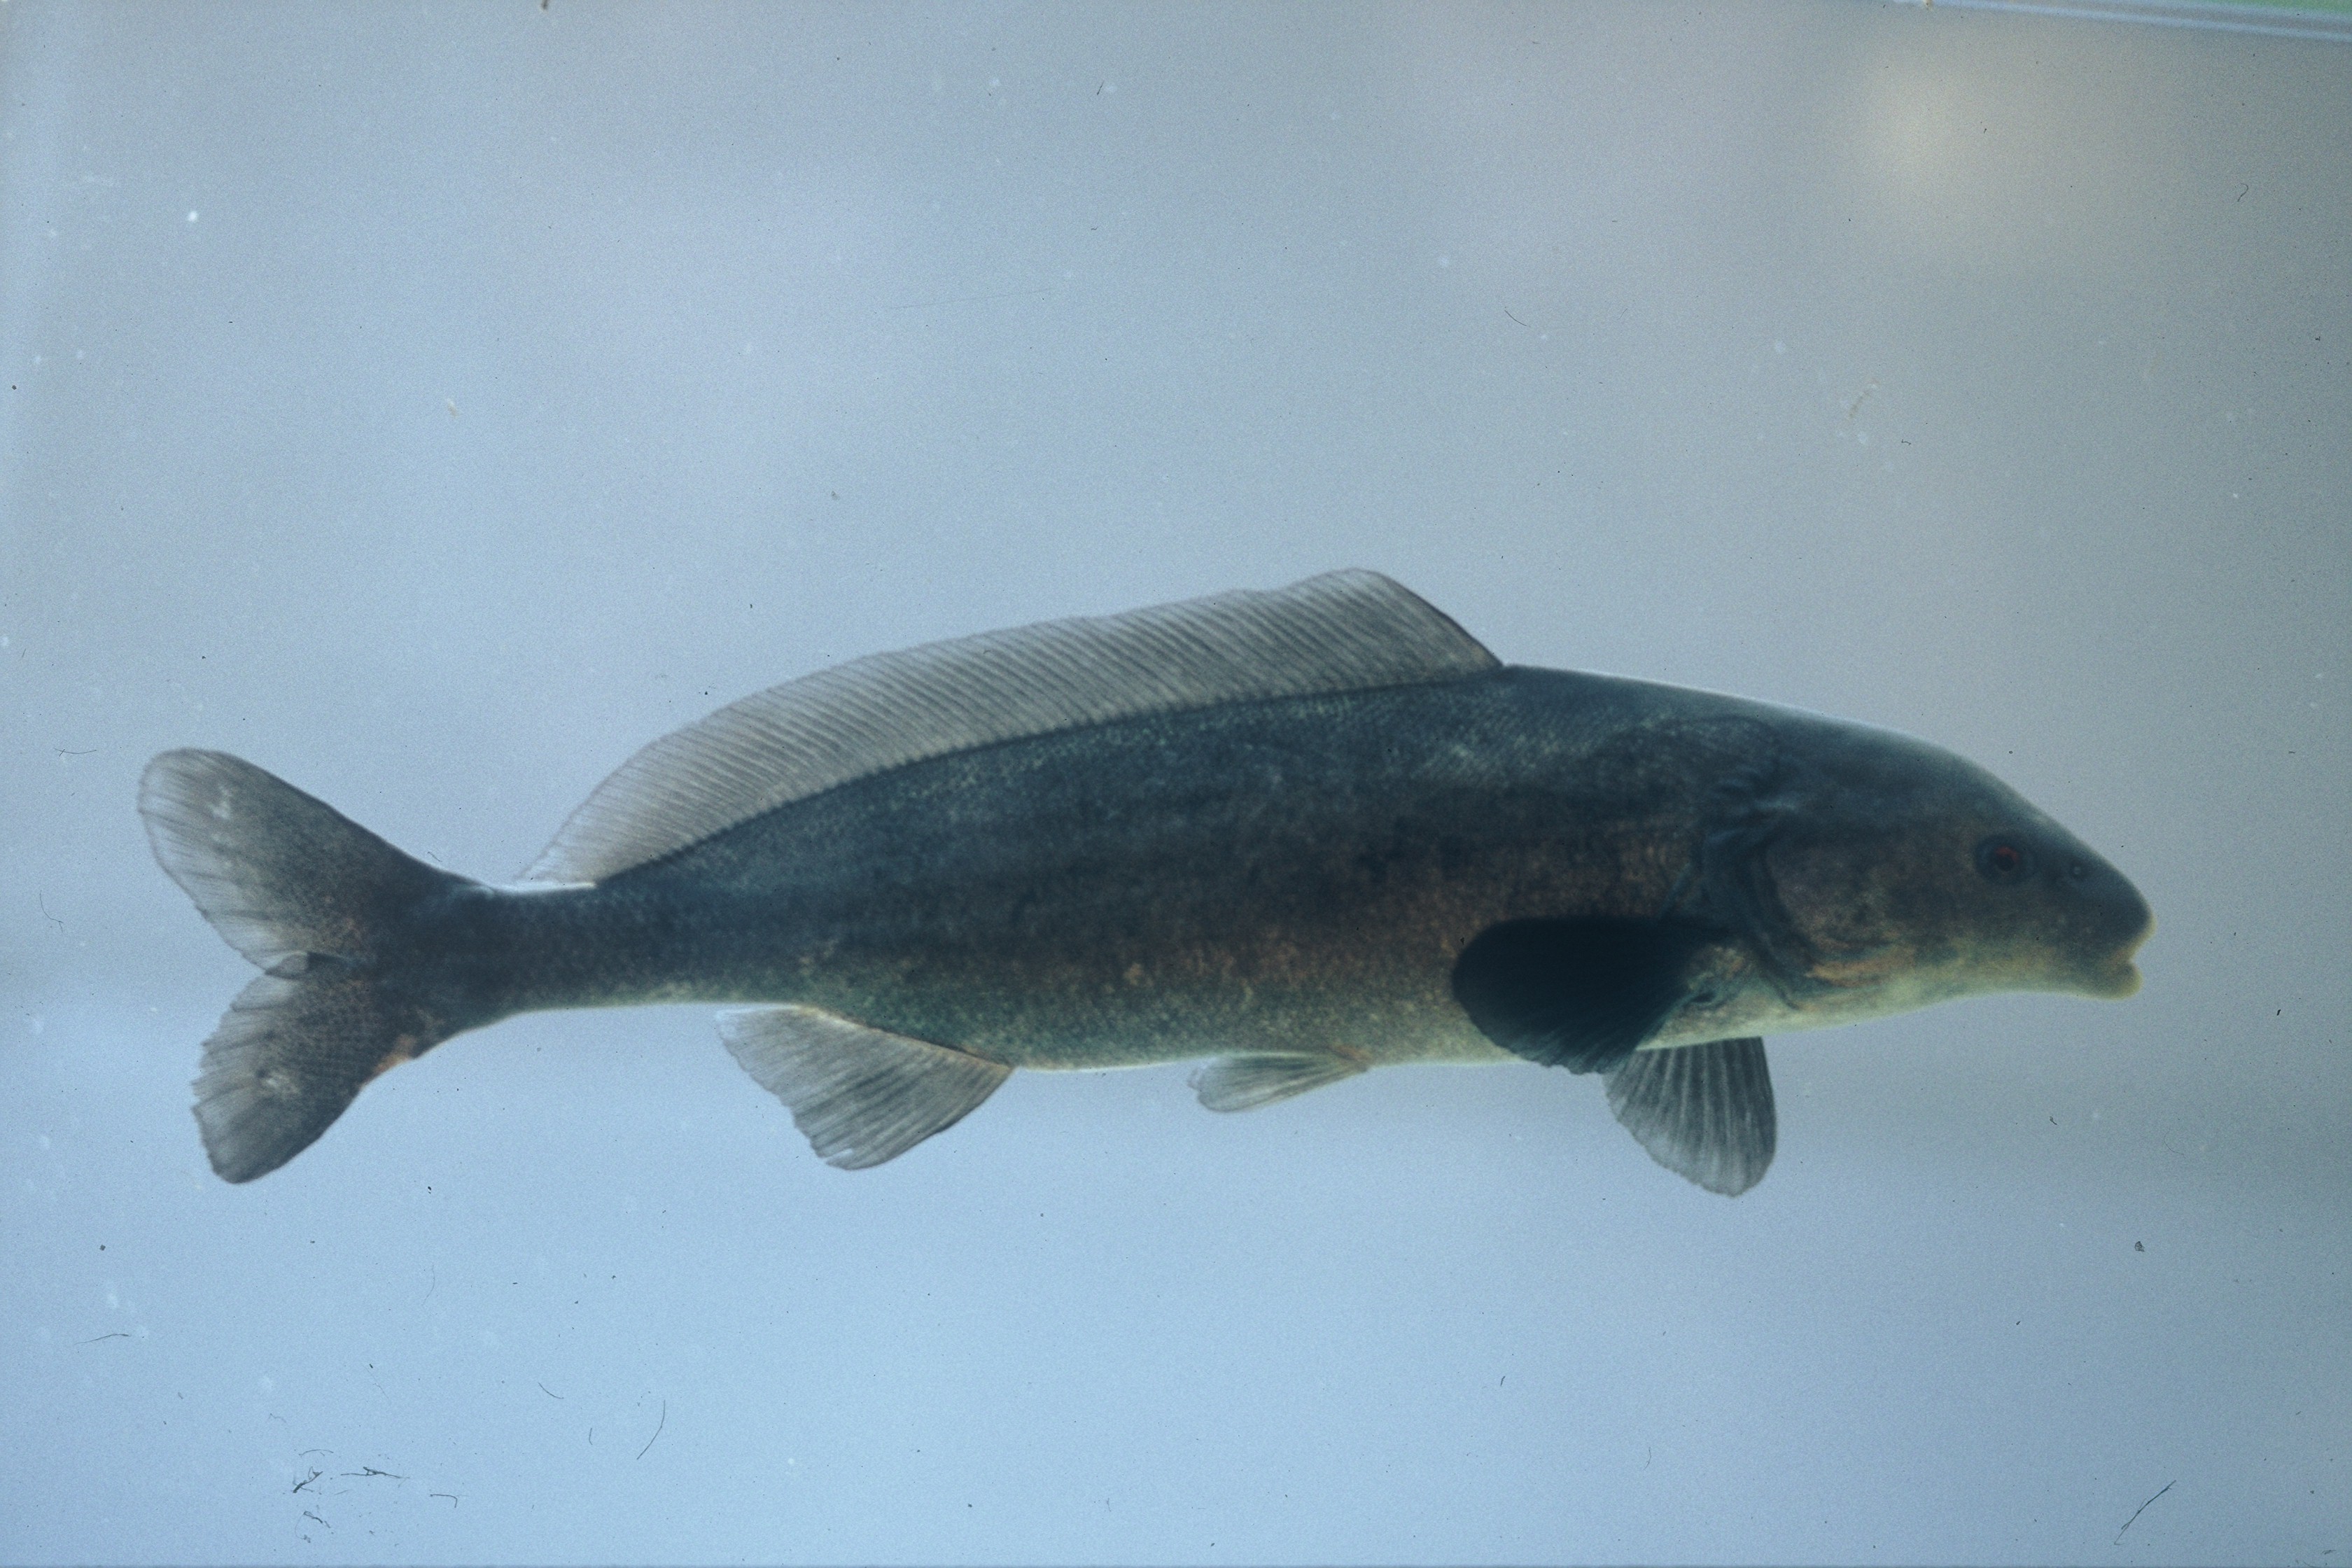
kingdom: Animalia
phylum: Chordata
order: Osteoglossiformes
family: Mormyridae
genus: Mormyrus
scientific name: Mormyrus lacerda
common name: Western bottlenose
